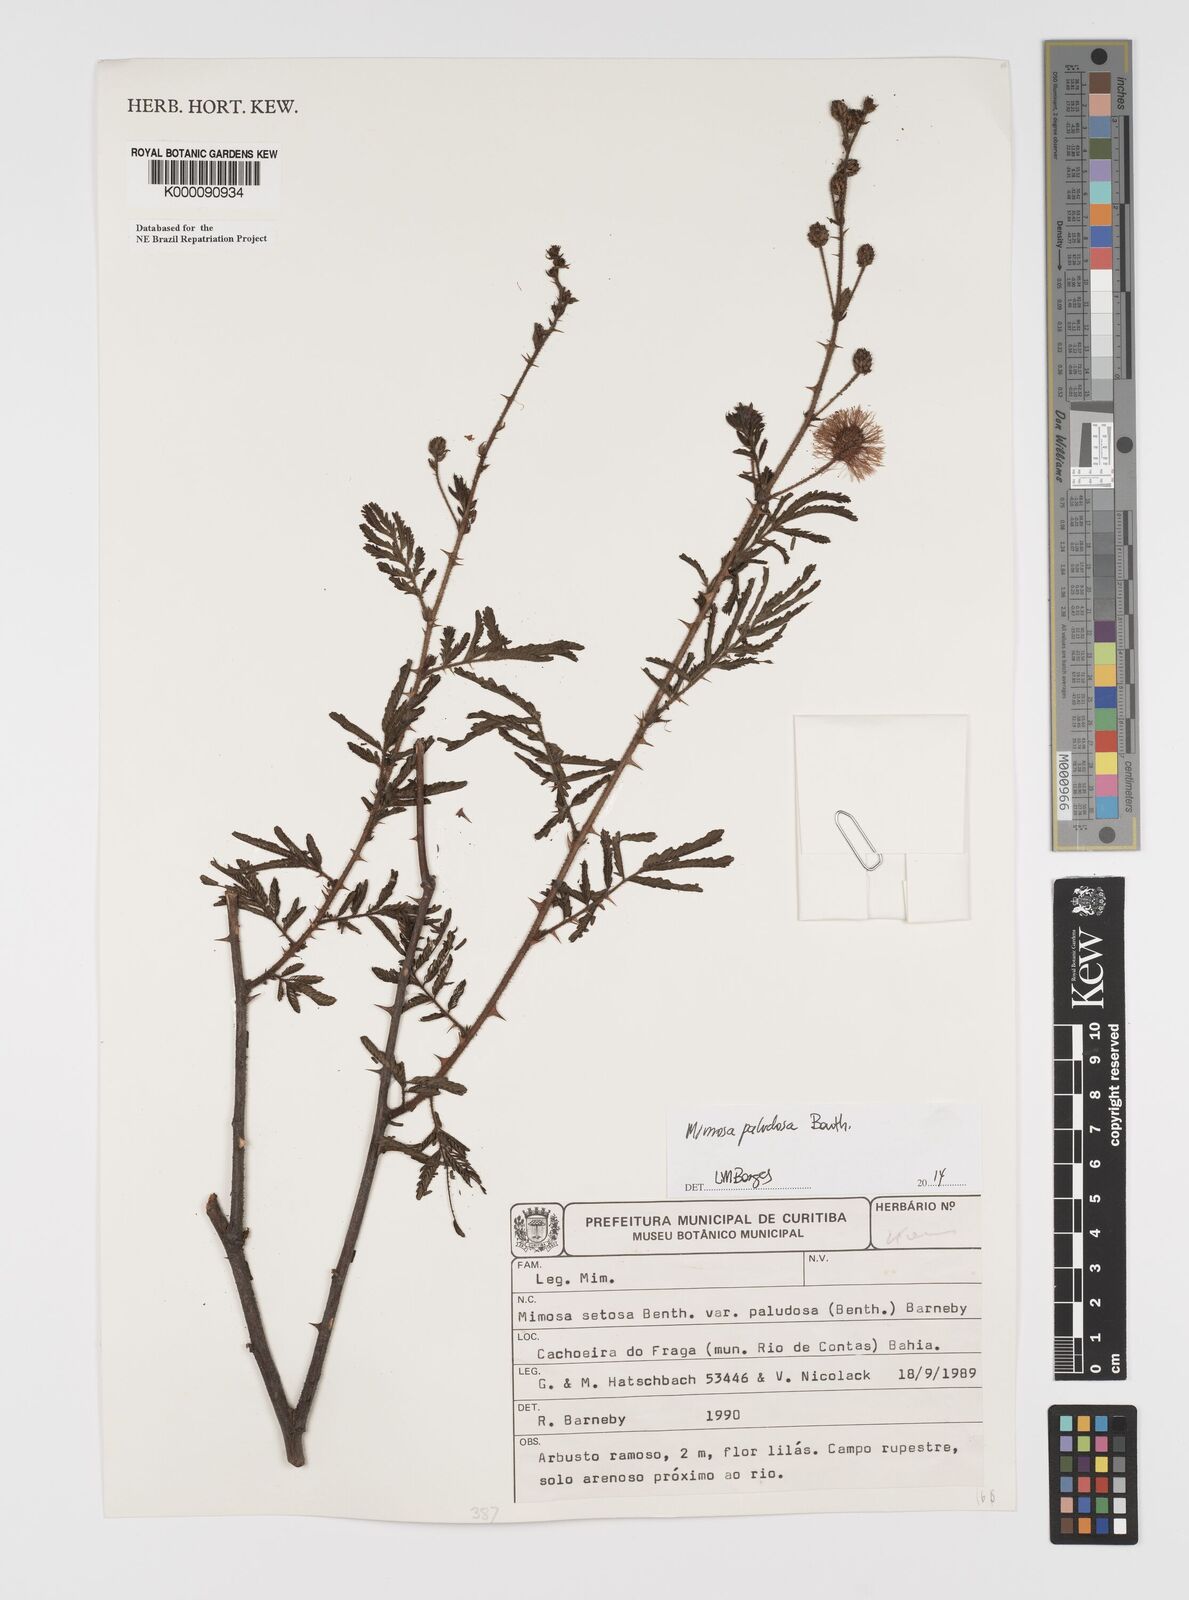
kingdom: Plantae
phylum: Tracheophyta
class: Magnoliopsida
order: Fabales
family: Fabaceae
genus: Mimosa
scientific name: Mimosa paludosa
